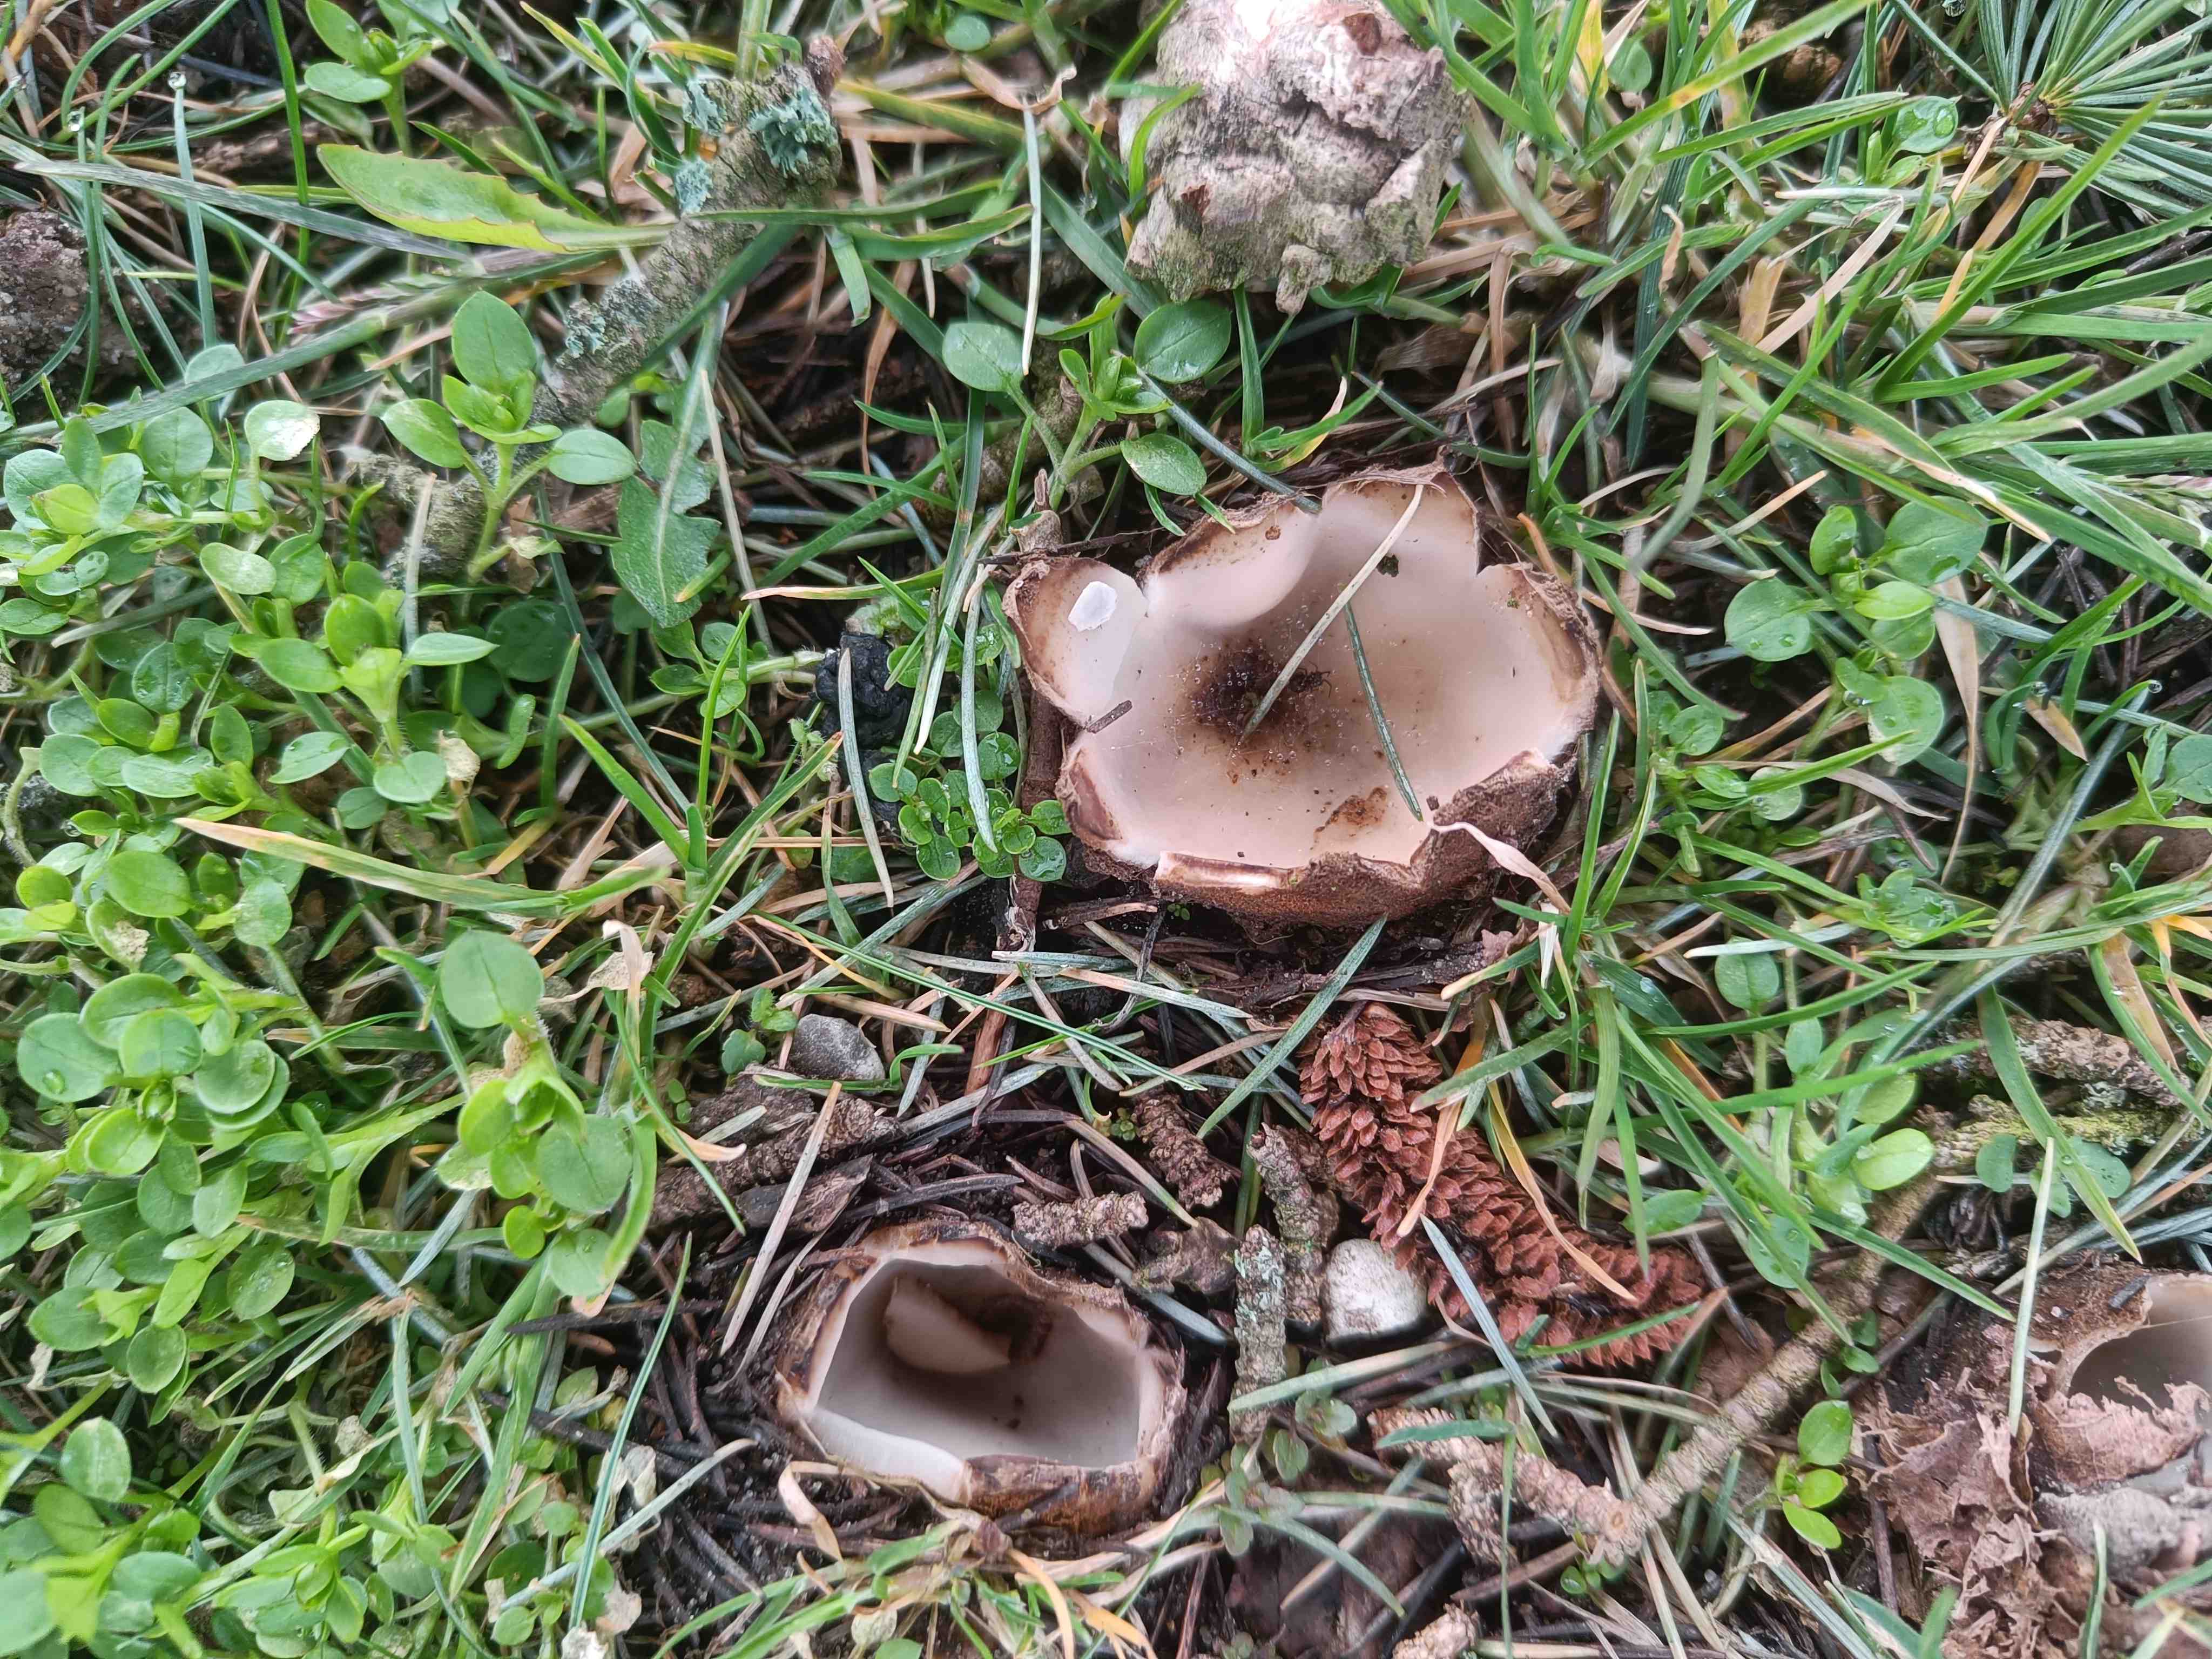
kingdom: Fungi
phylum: Ascomycota
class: Pezizomycetes
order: Pezizales
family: Pyronemataceae
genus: Geopora
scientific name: Geopora sumneriana
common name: vår-jordbæger
